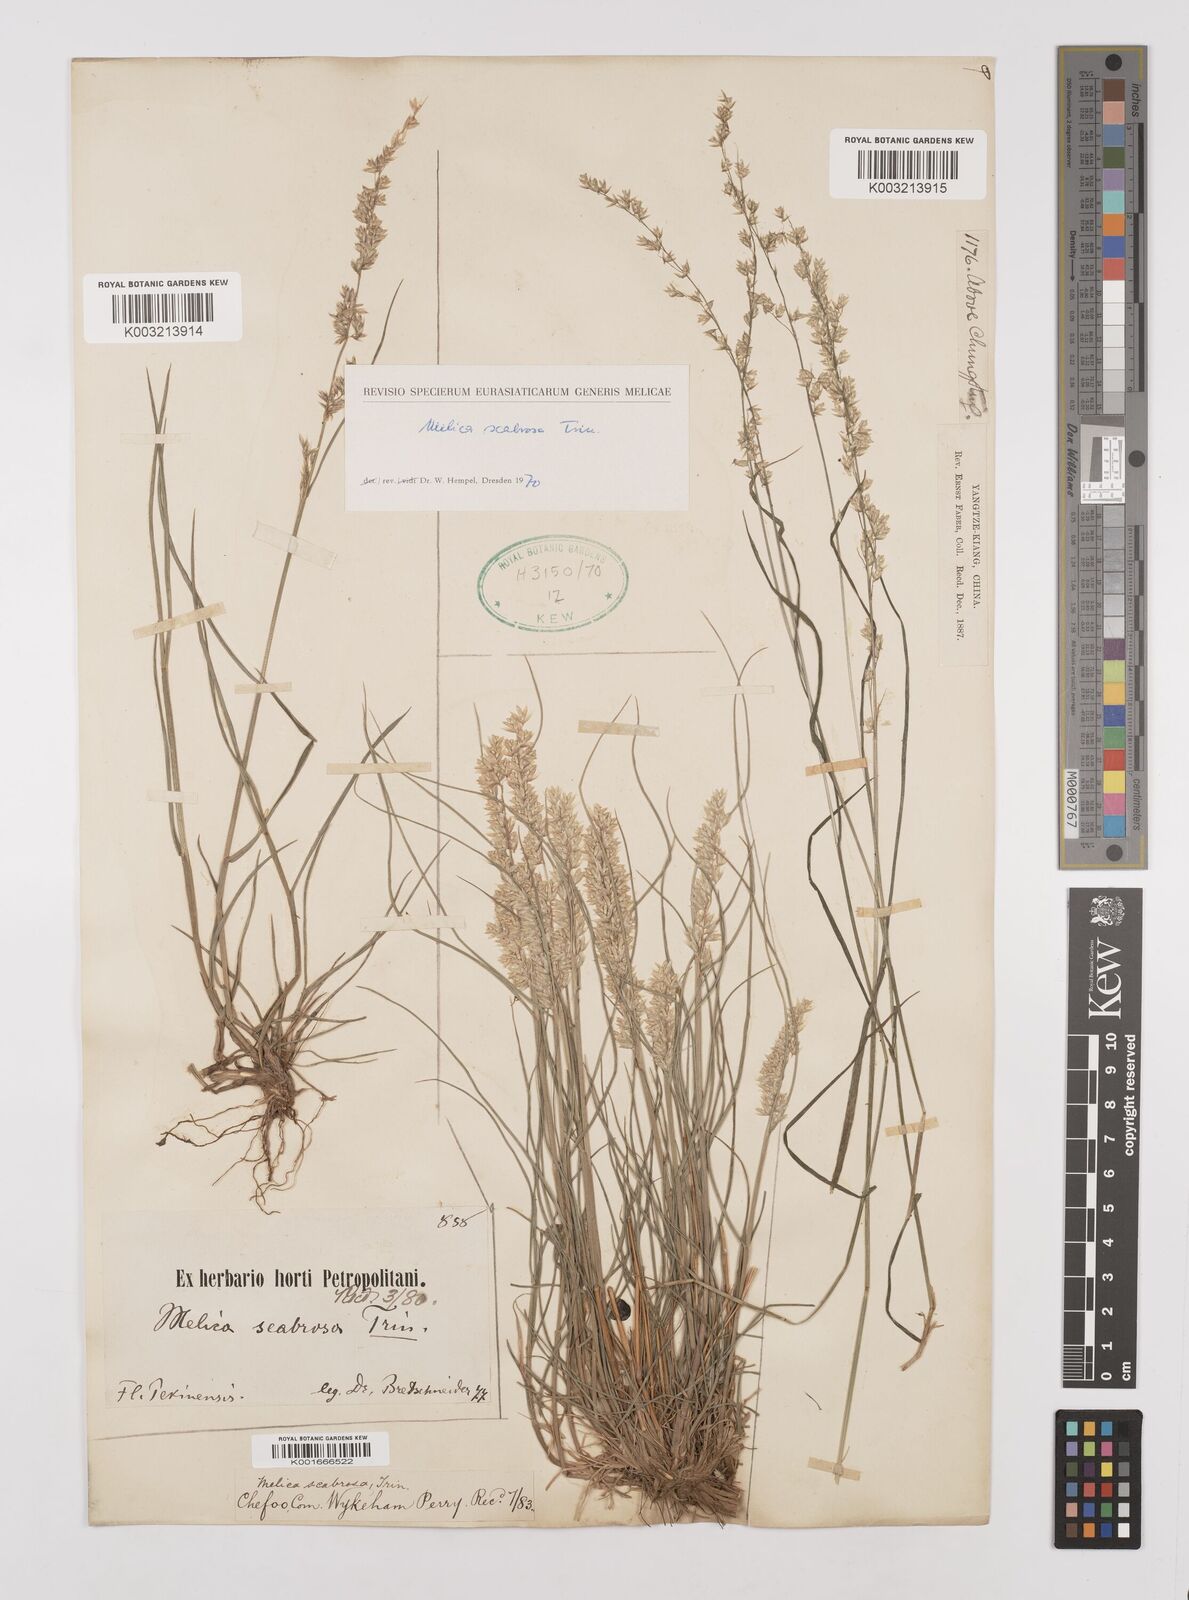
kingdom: Plantae
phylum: Tracheophyta
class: Liliopsida
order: Poales
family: Poaceae
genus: Melica
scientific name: Melica scabrosa
